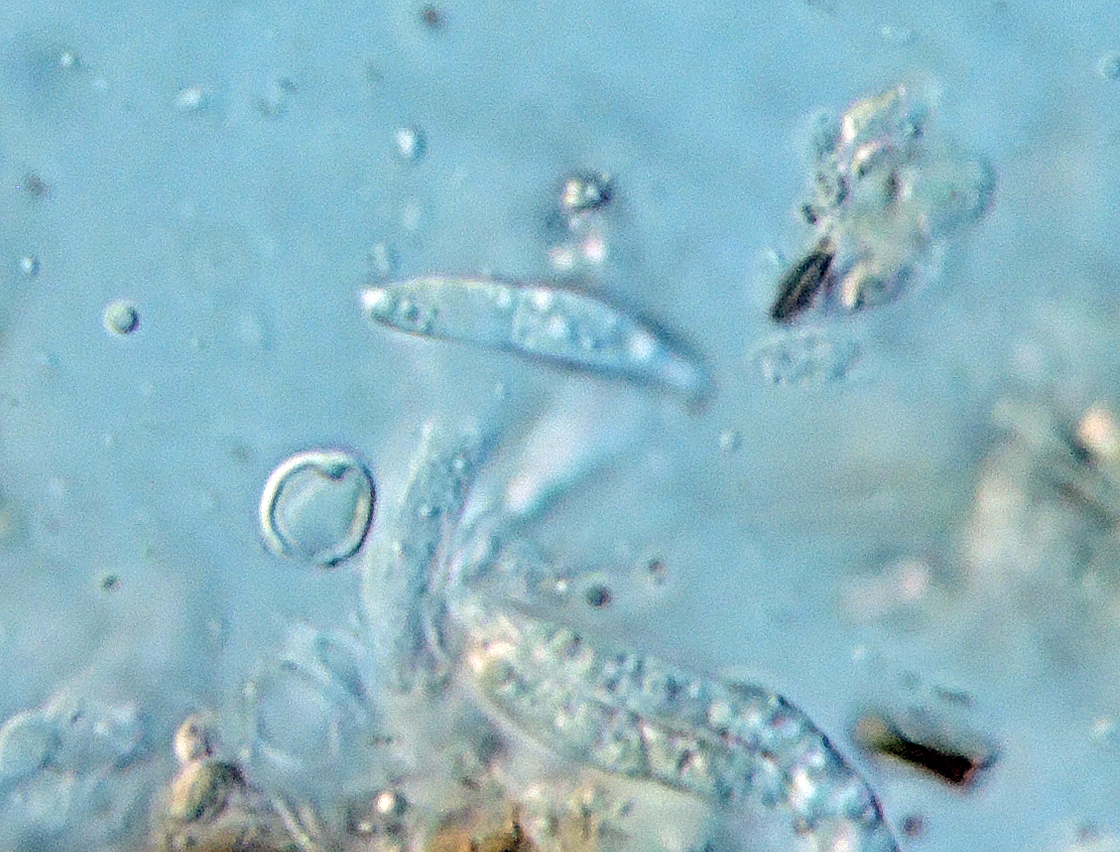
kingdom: Fungi
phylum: Ascomycota
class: Dothideomycetes
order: Microthyriales
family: Microthyriaceae
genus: Microthyrium
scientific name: Microthyrium microscopicum
